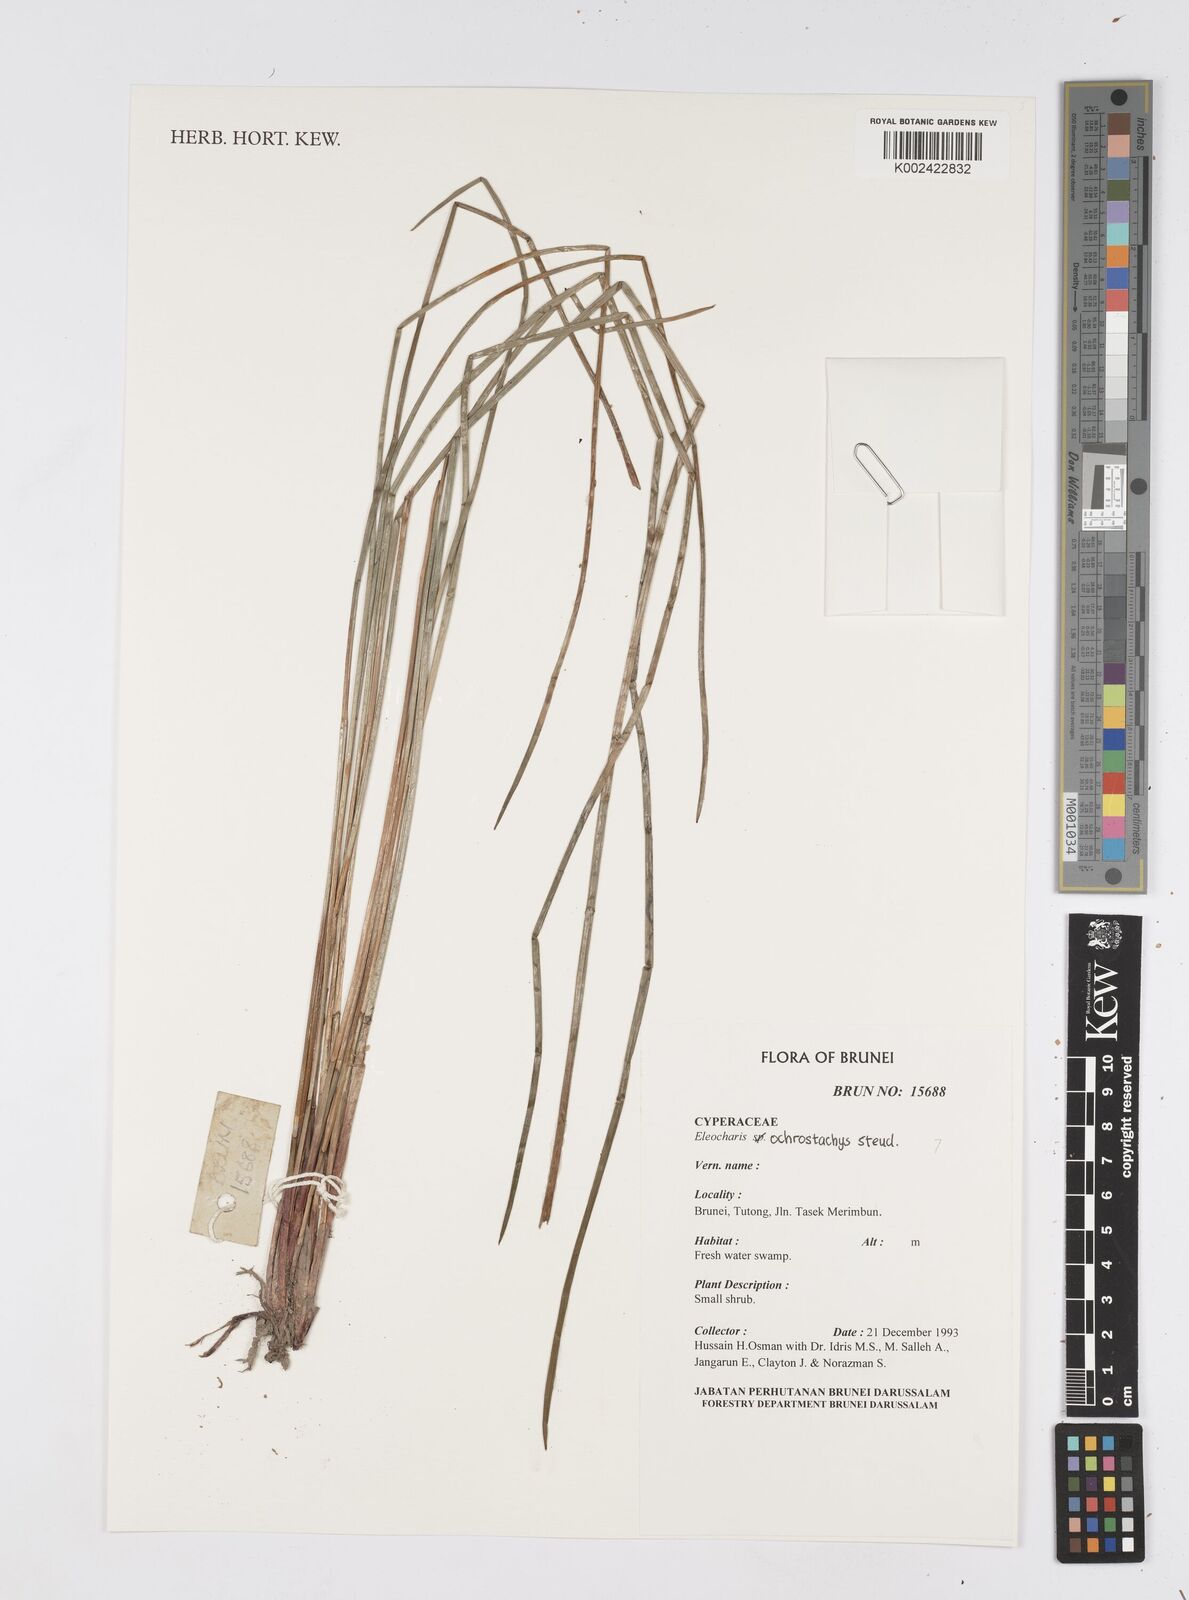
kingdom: Plantae
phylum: Tracheophyta
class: Liliopsida
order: Poales
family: Cyperaceae
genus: Eleocharis
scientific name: Eleocharis ochrostachys
